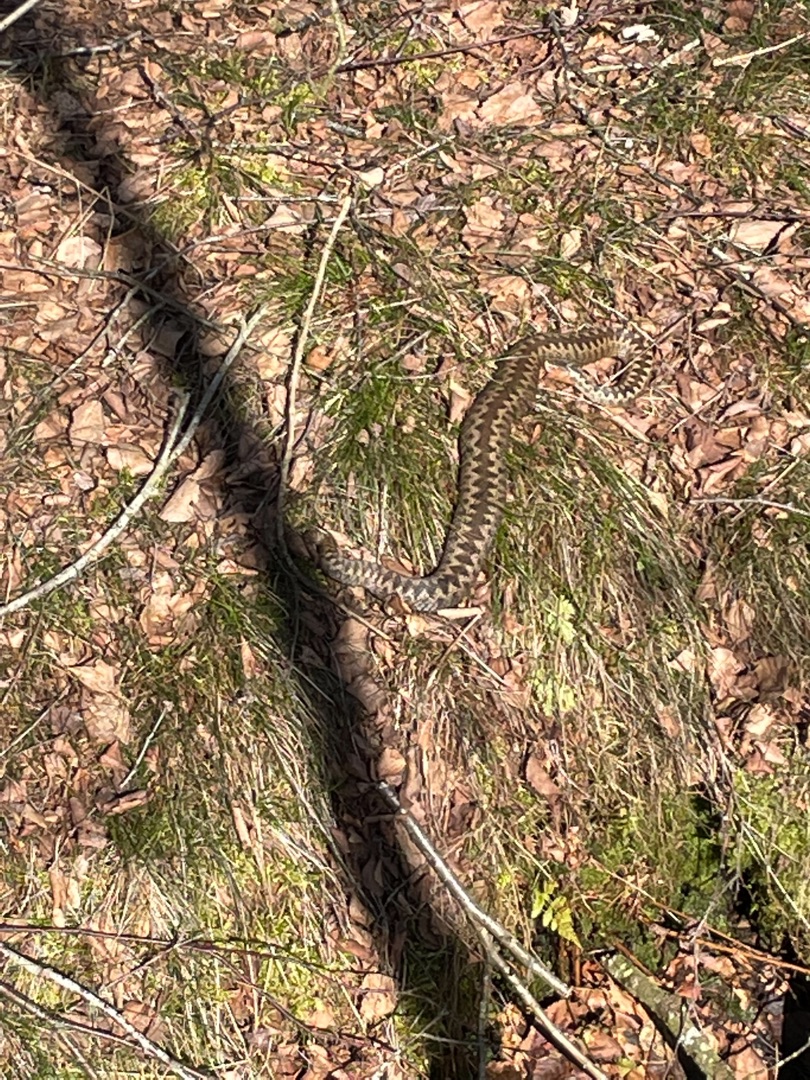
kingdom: Animalia
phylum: Chordata
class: Squamata
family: Viperidae
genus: Vipera
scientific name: Vipera berus
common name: Hugorm
